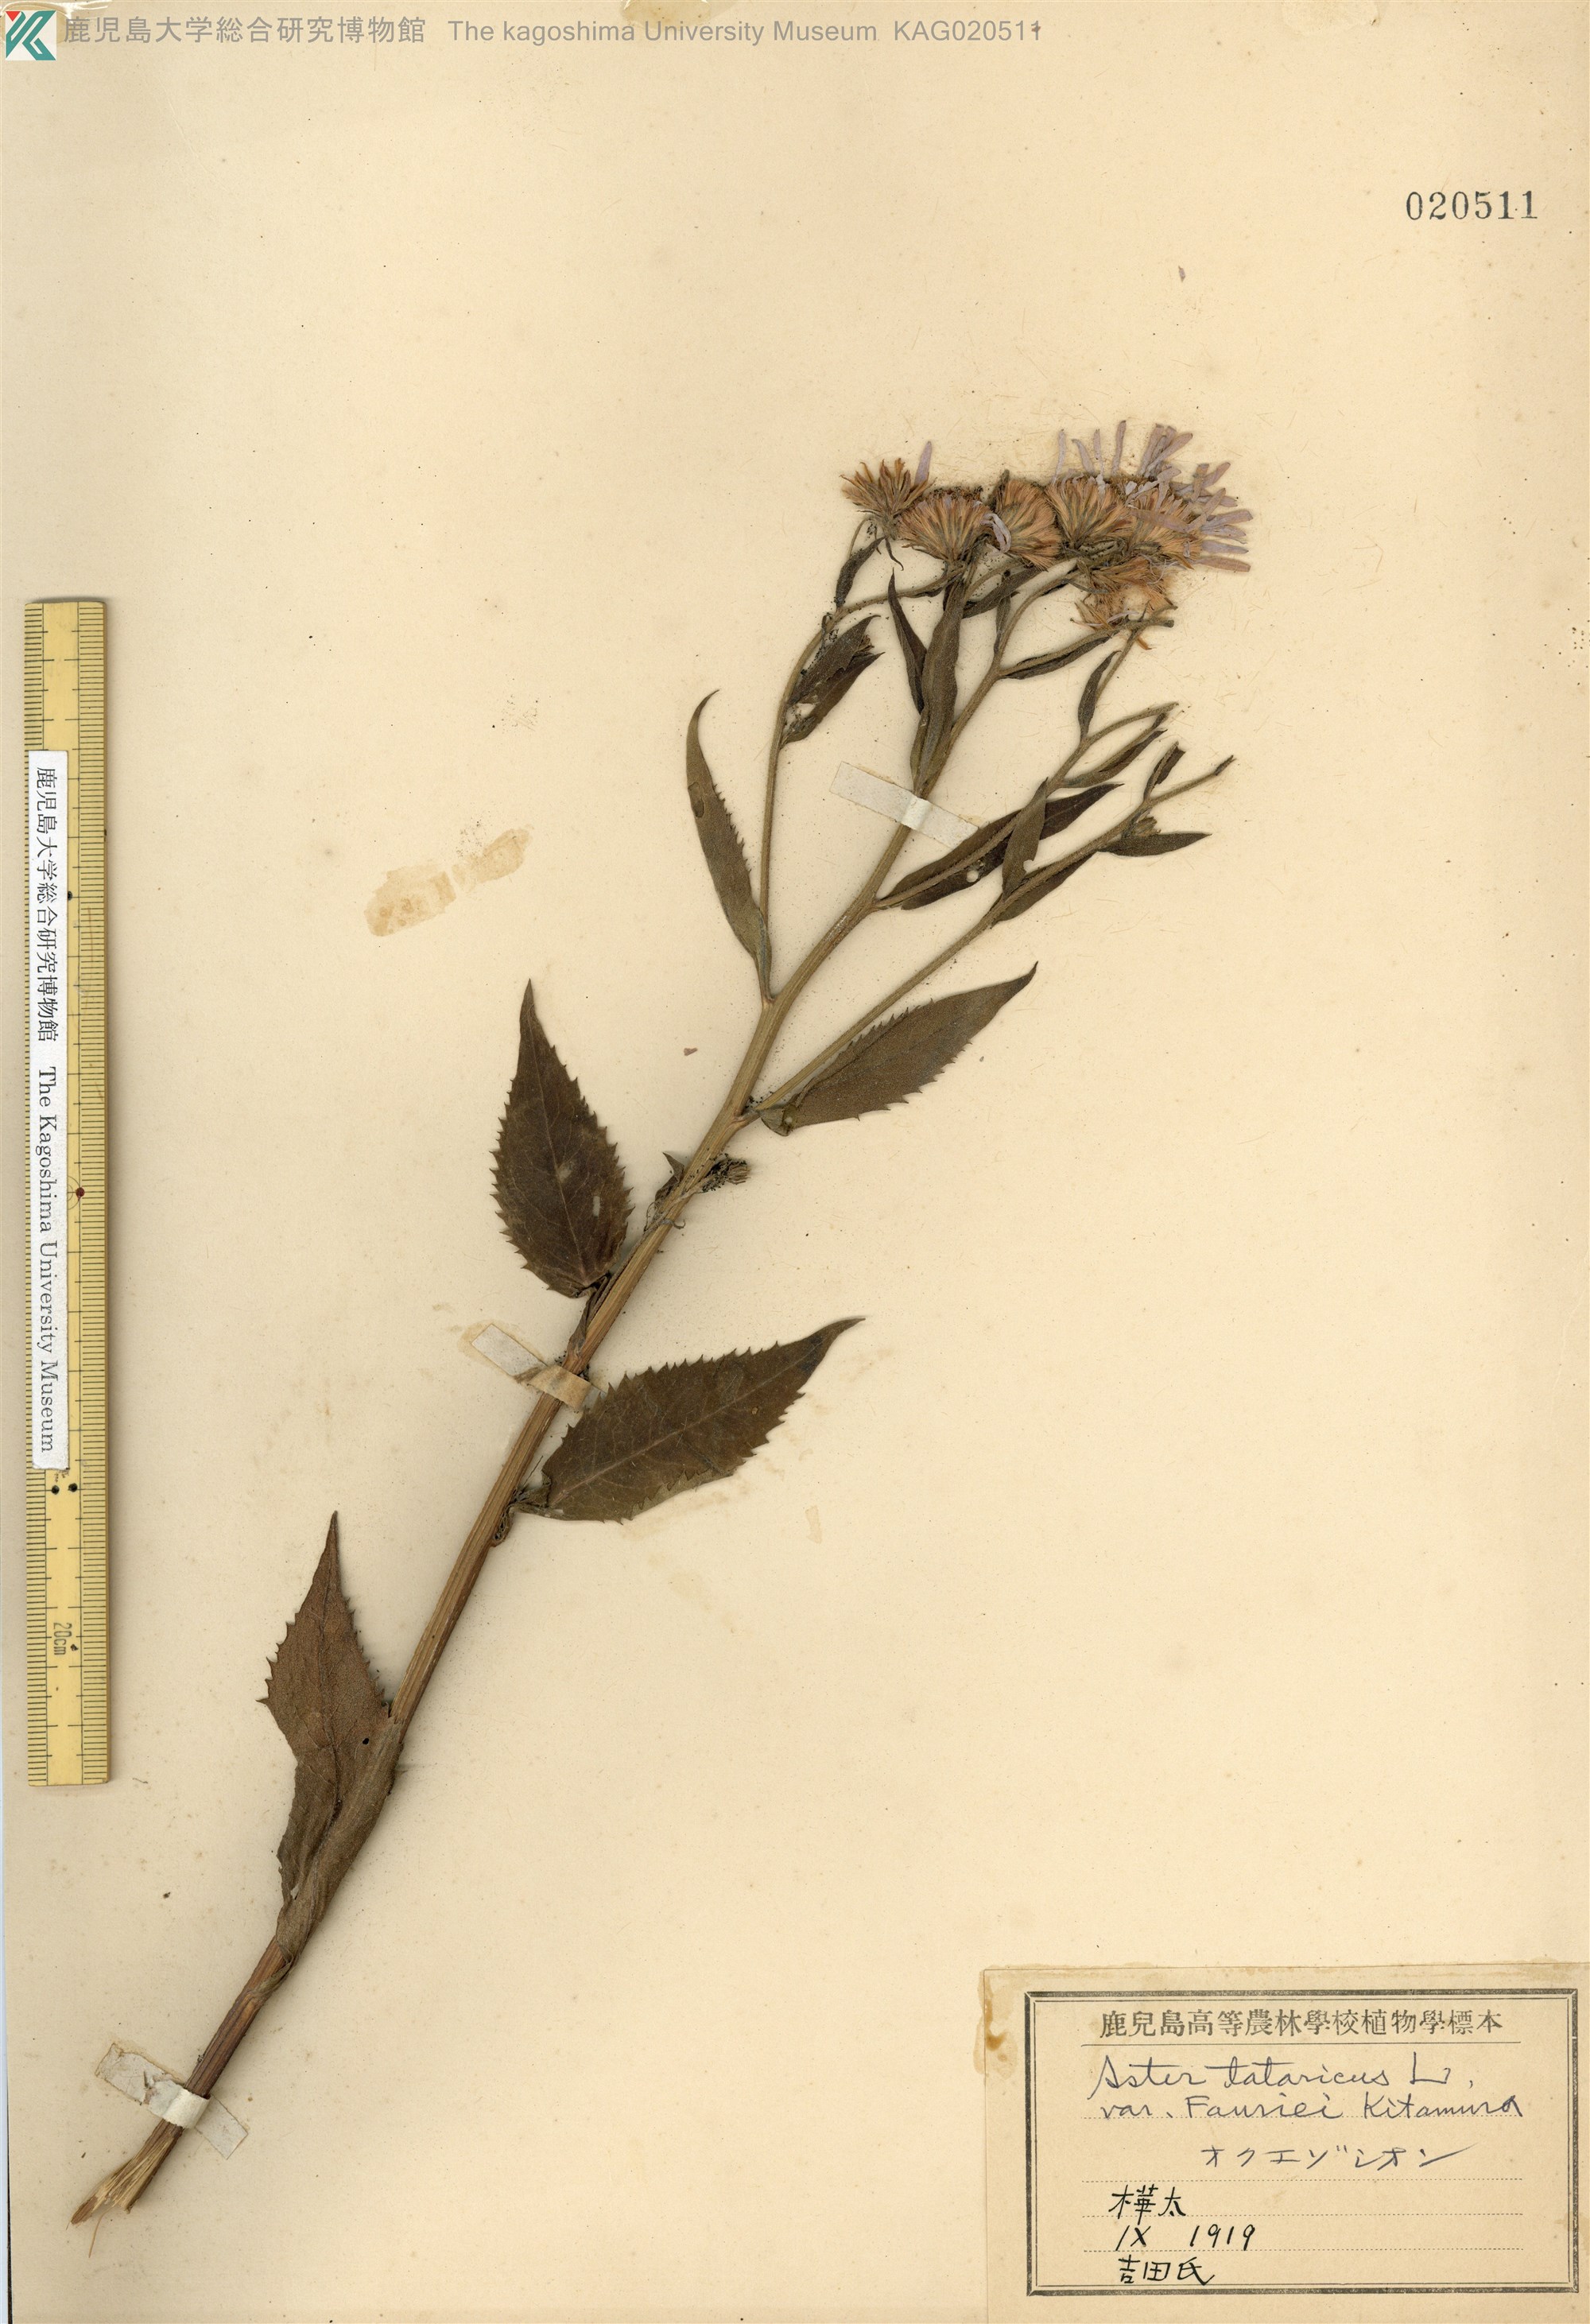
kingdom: Plantae
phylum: Tracheophyta
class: Magnoliopsida
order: Asterales
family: Asteraceae
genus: Aster
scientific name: Aster tataricus
